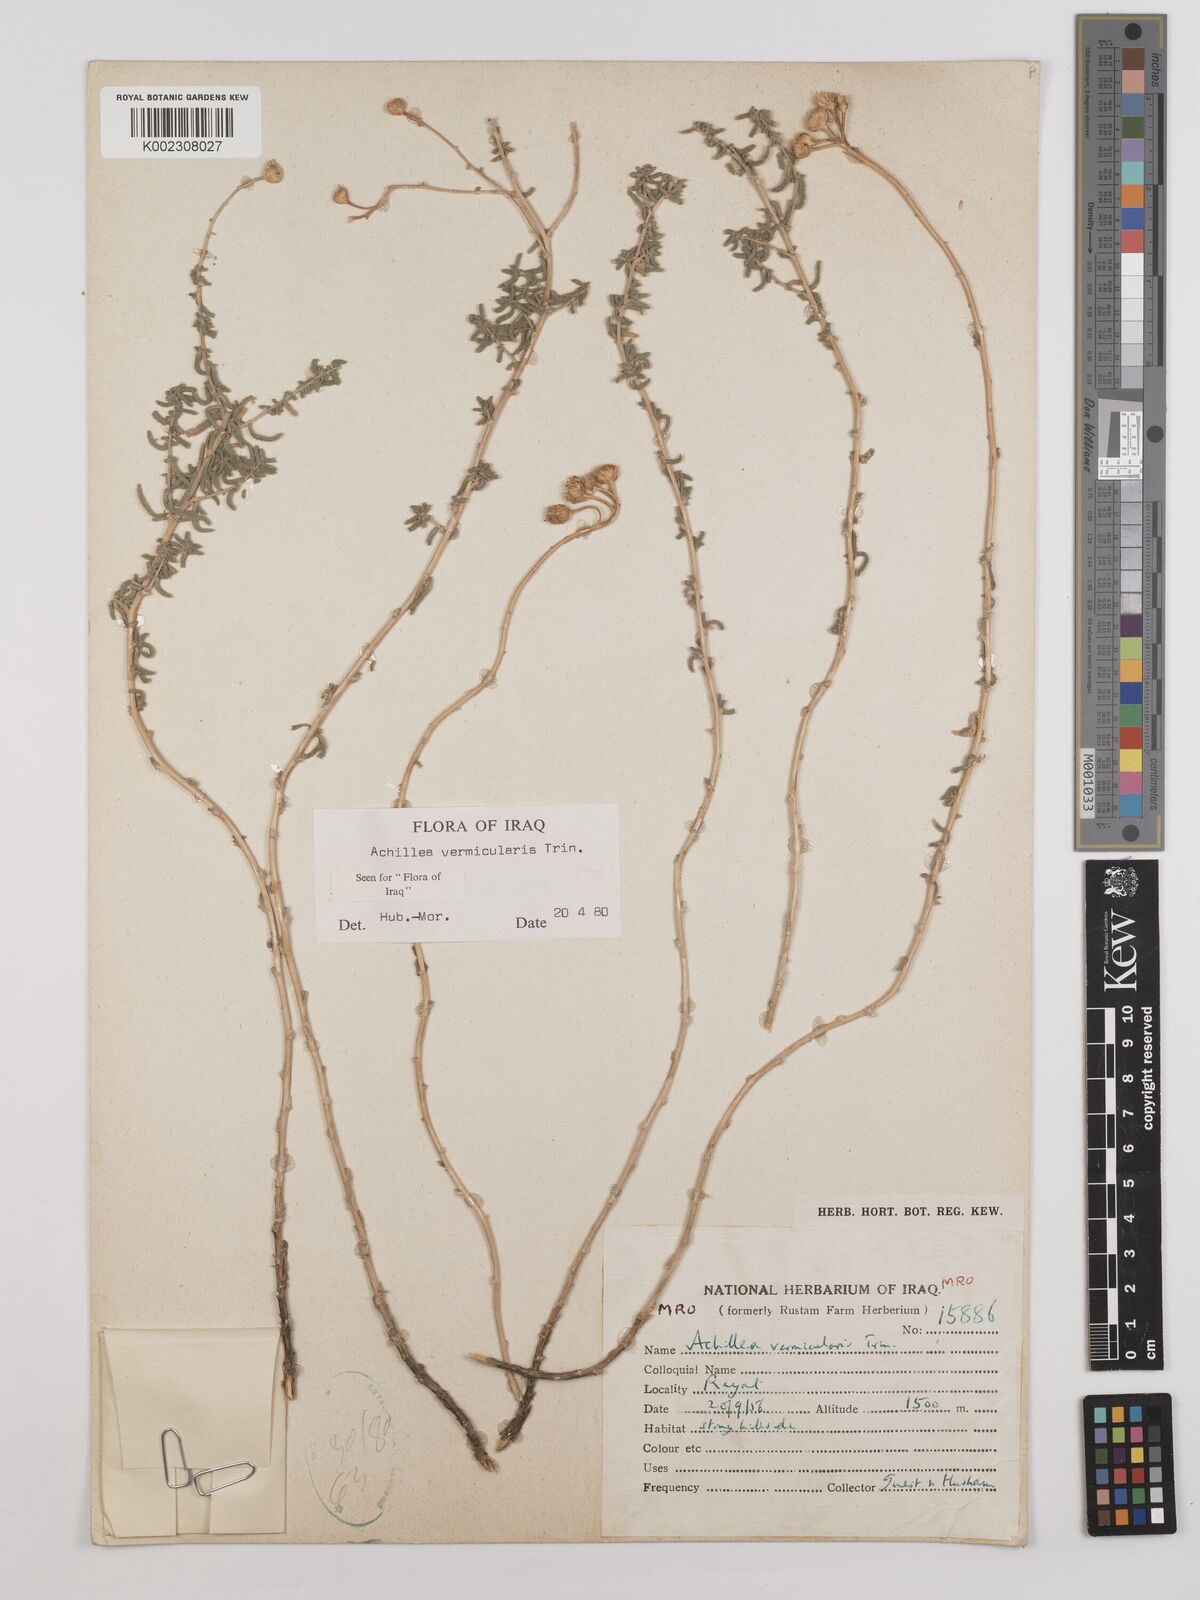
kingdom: Plantae
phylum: Tracheophyta
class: Magnoliopsida
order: Asterales
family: Asteraceae
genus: Achillea
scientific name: Achillea vermicularis
